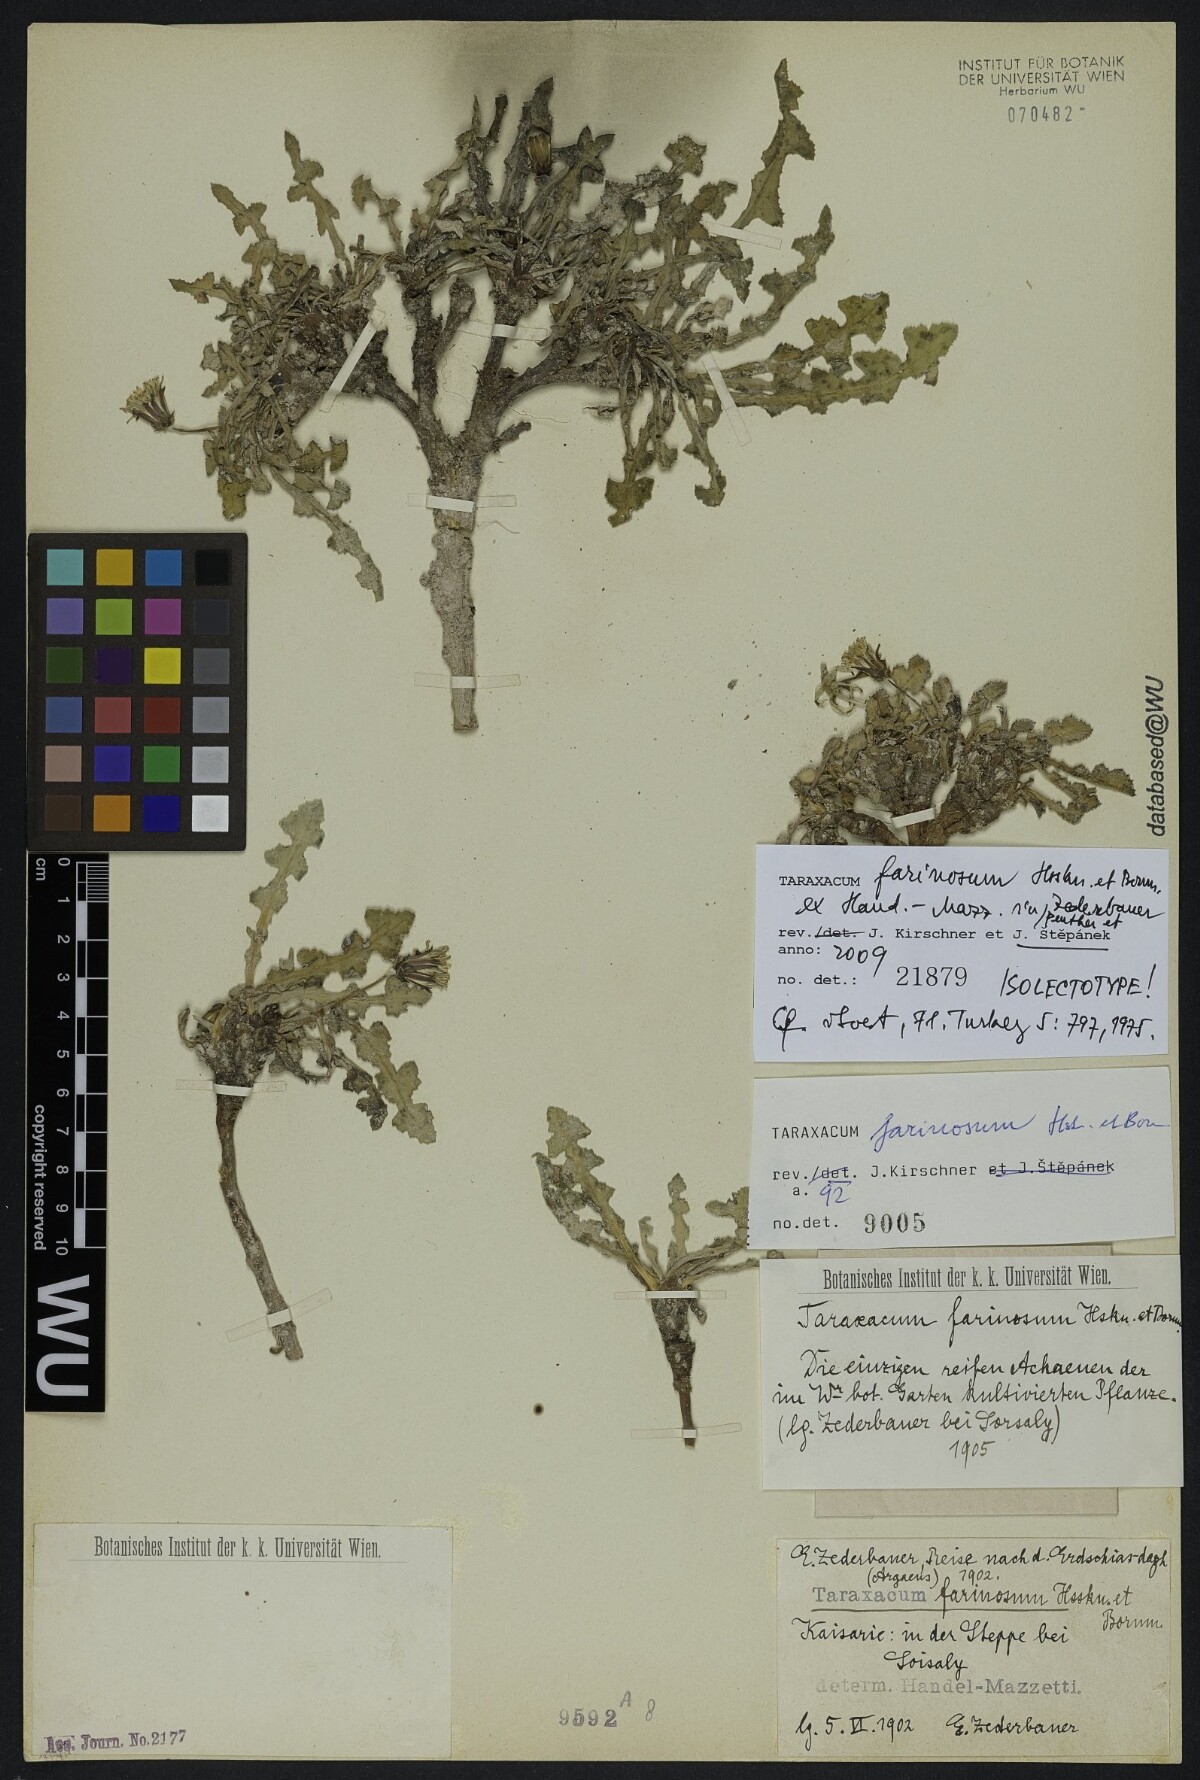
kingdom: Plantae
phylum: Tracheophyta
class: Magnoliopsida
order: Asterales
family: Asteraceae
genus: Taraxacum
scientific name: Taraxacum farinosum
